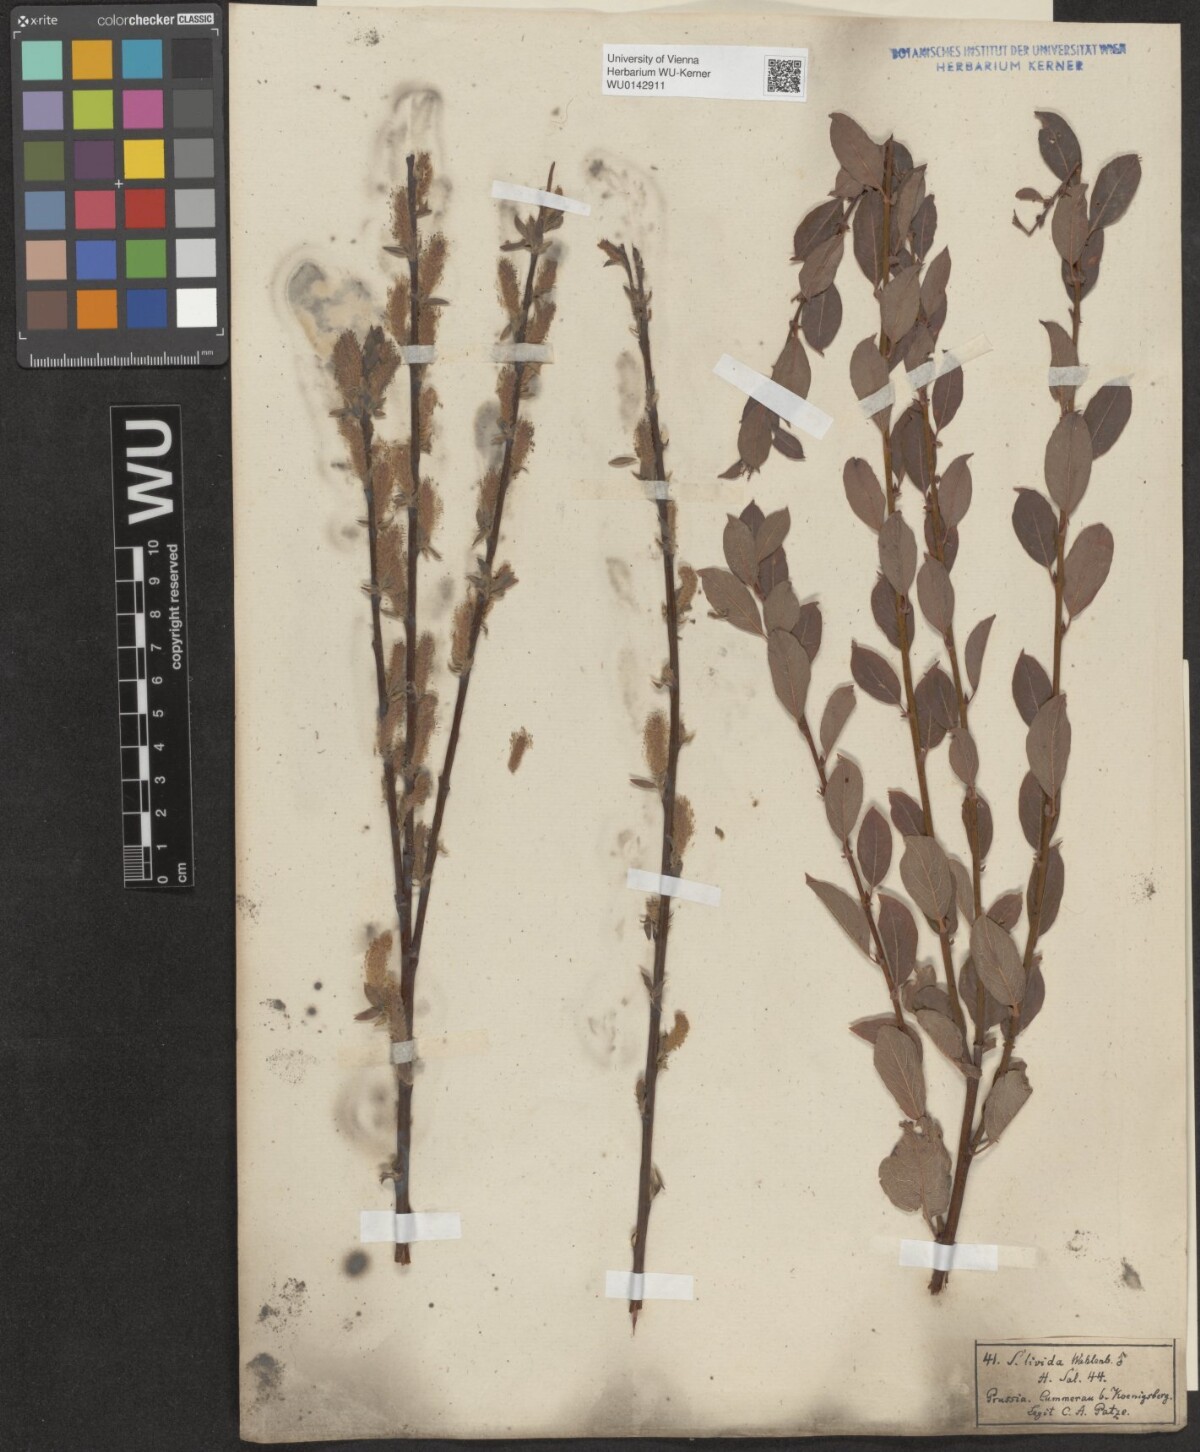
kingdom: Plantae
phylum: Tracheophyta
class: Magnoliopsida
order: Malpighiales
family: Salicaceae
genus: Salix
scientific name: Salix starkeana
